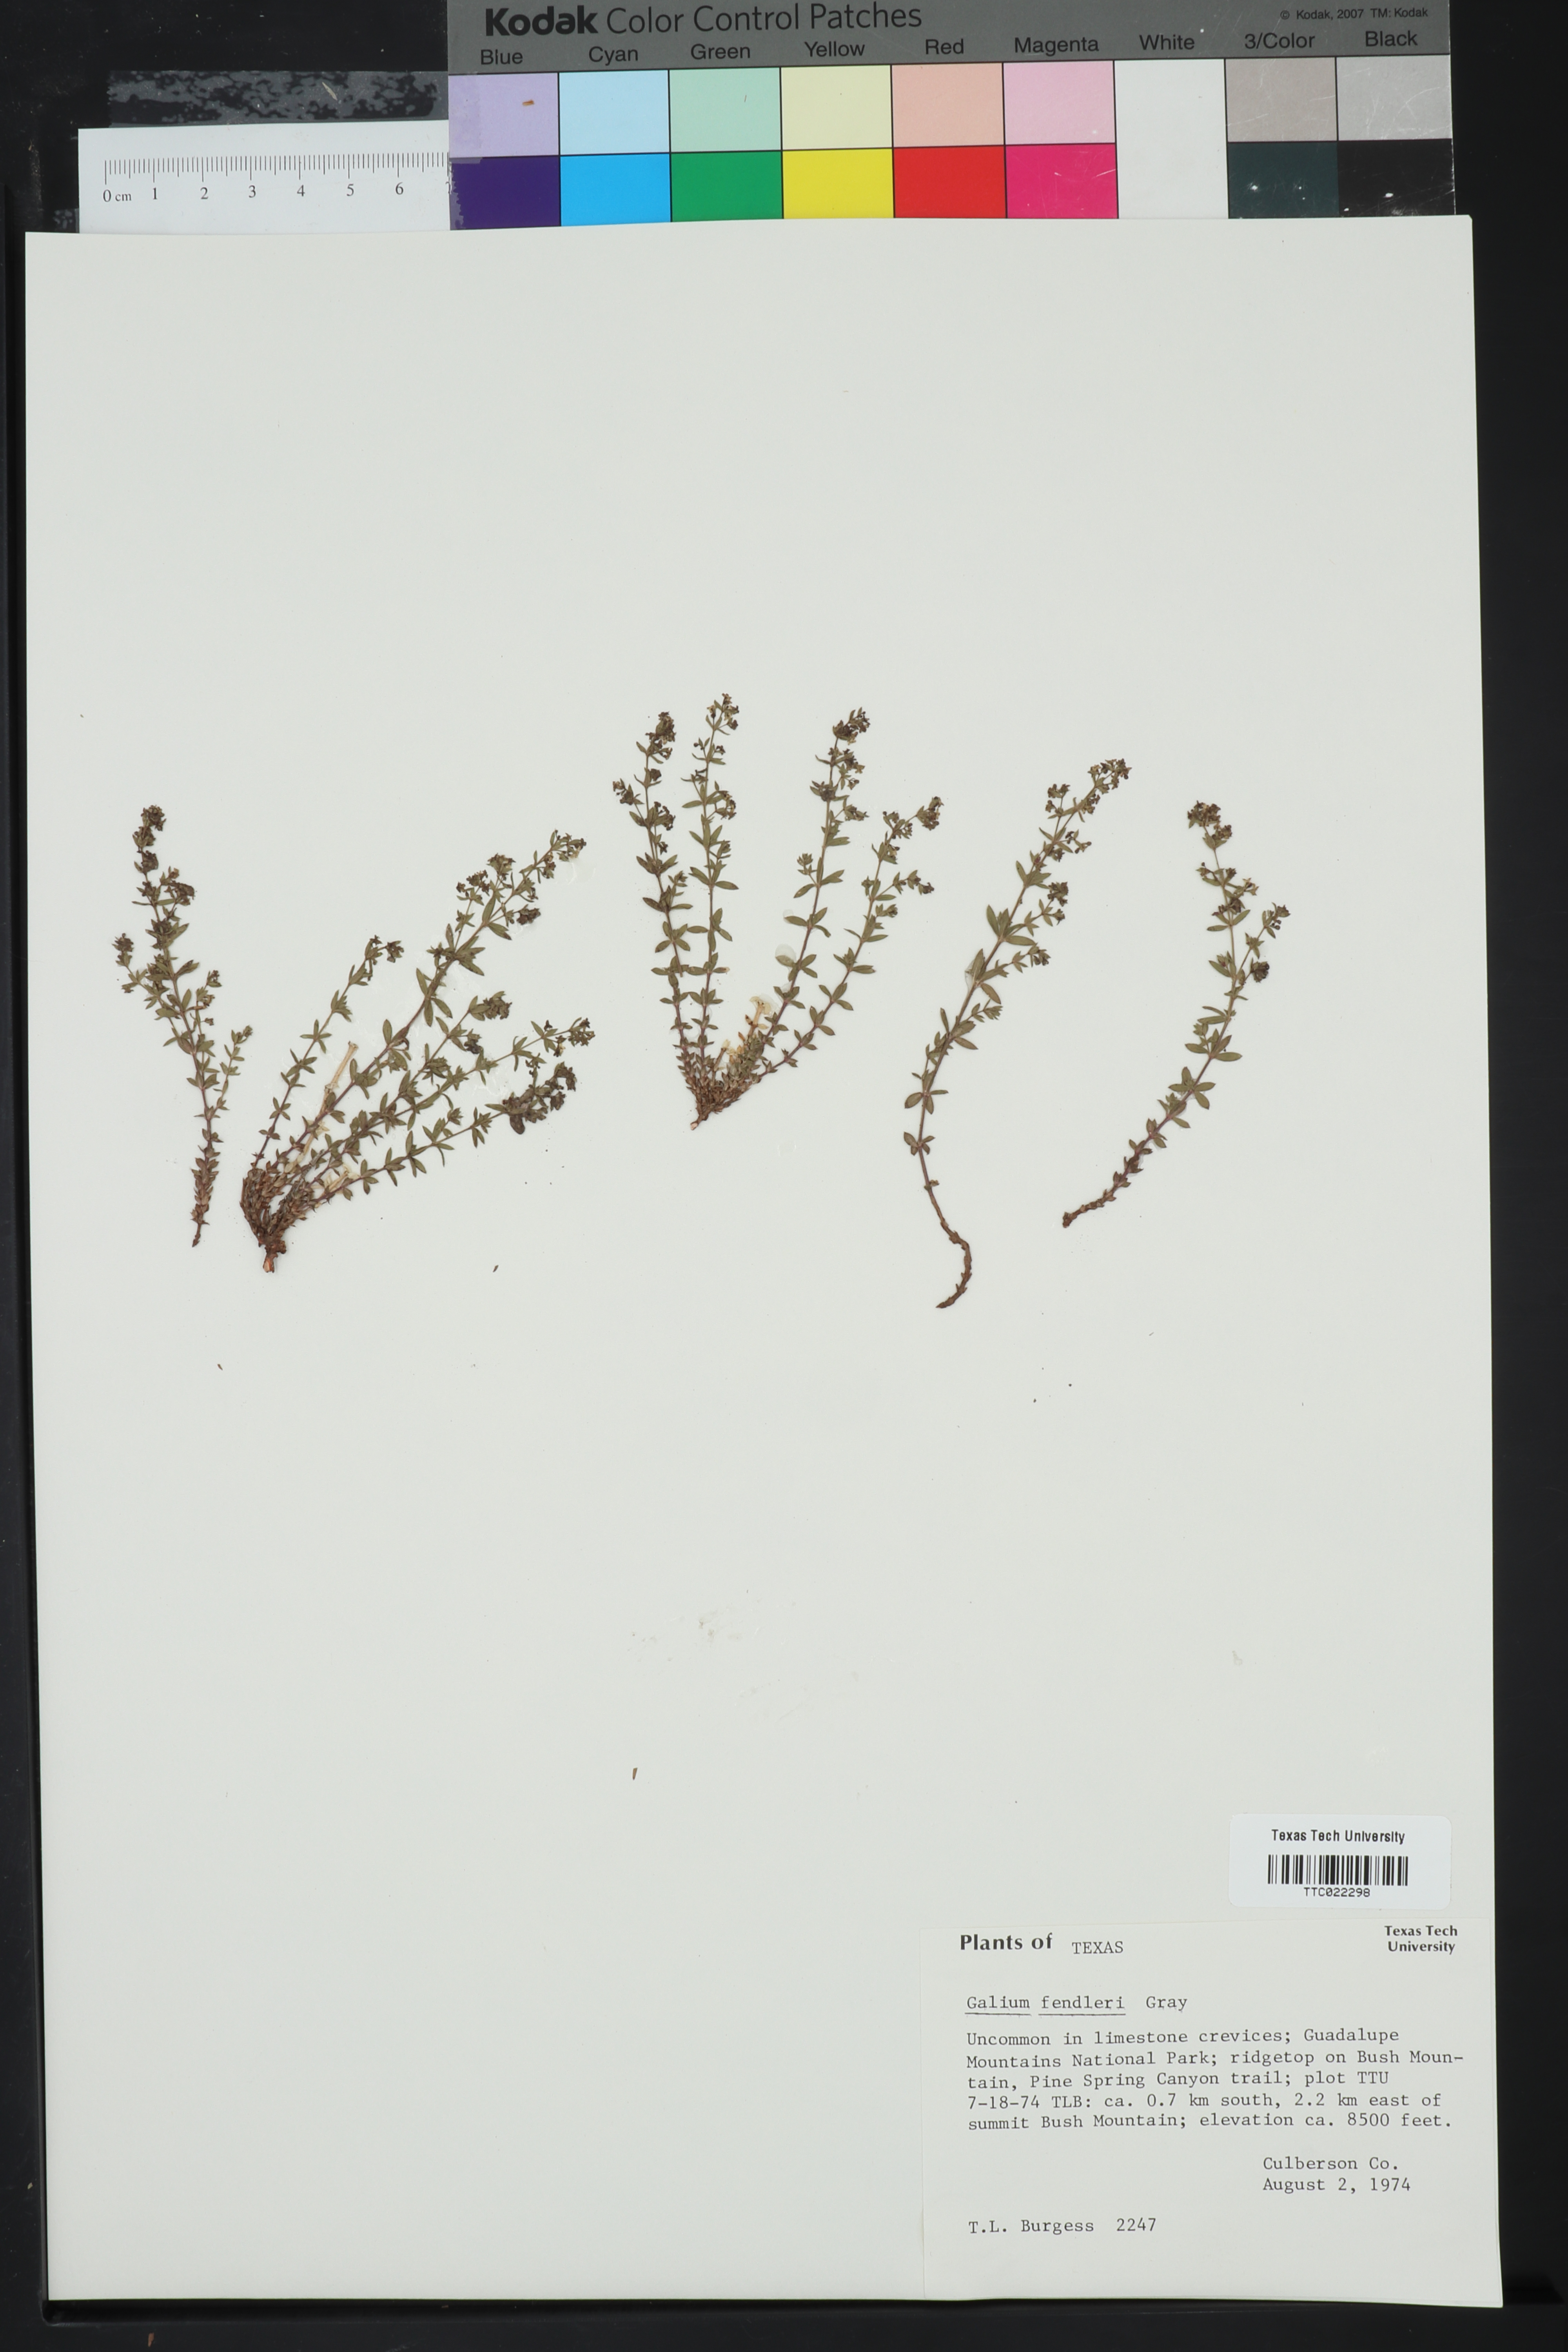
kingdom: Plantae
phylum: Tracheophyta
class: Magnoliopsida
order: Gentianales
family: Rubiaceae
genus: Galium
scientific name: Galium fendleri
